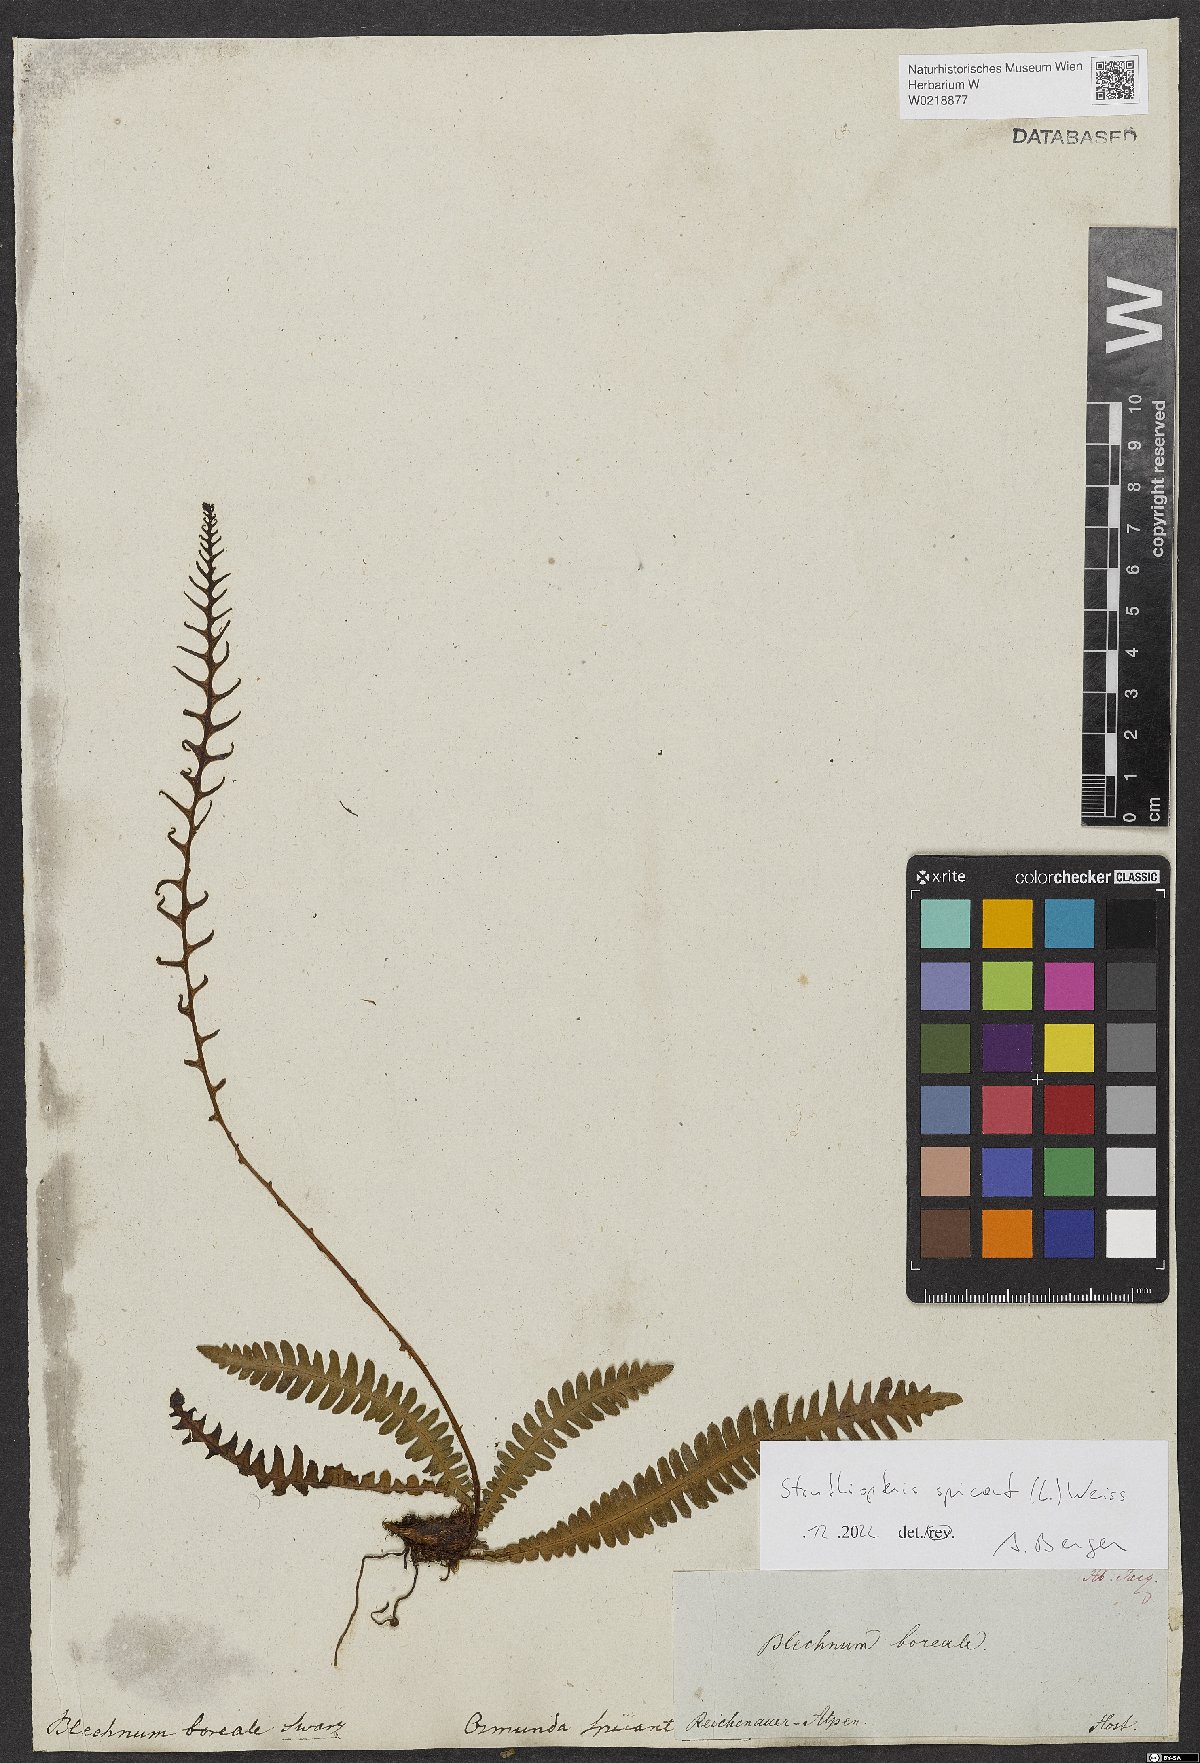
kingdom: Plantae
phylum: Tracheophyta
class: Polypodiopsida
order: Polypodiales
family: Blechnaceae
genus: Struthiopteris
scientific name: Struthiopteris spicant
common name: Deer fern
